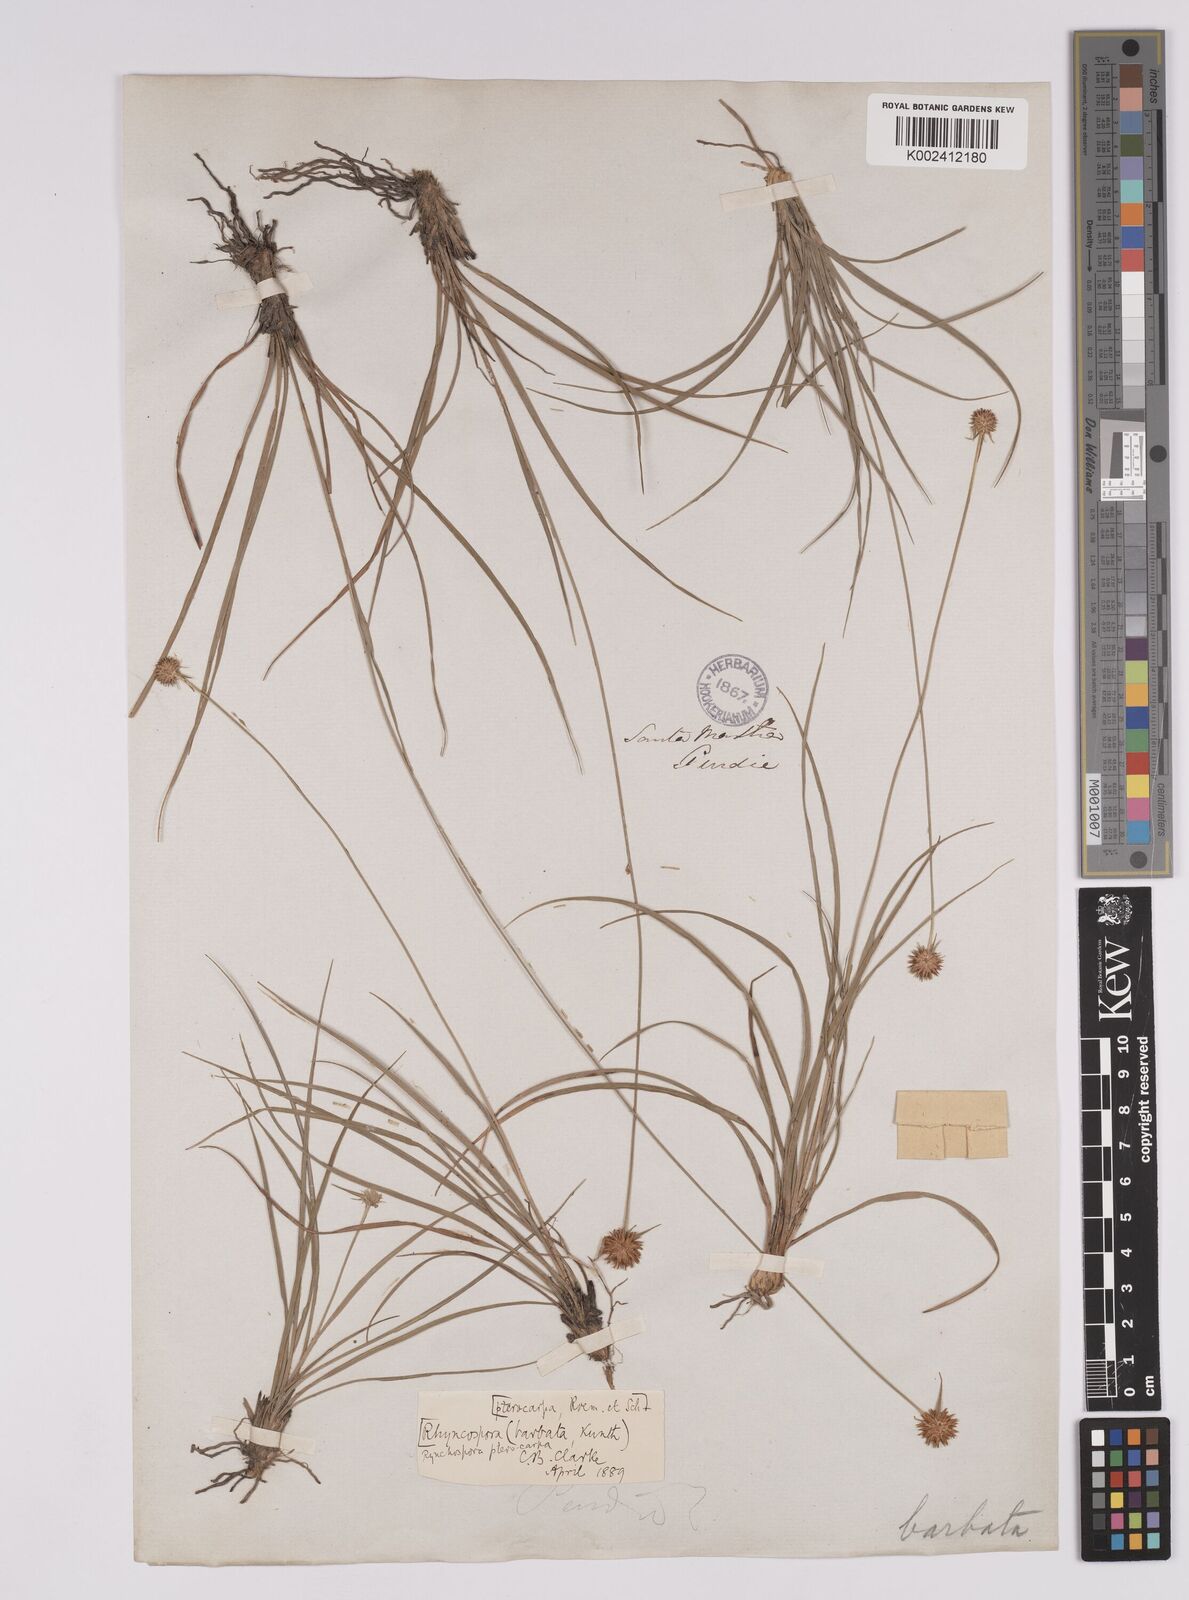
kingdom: Plantae
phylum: Tracheophyta
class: Liliopsida
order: Poales
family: Cyperaceae
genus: Rhynchospora
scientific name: Rhynchospora barbata
